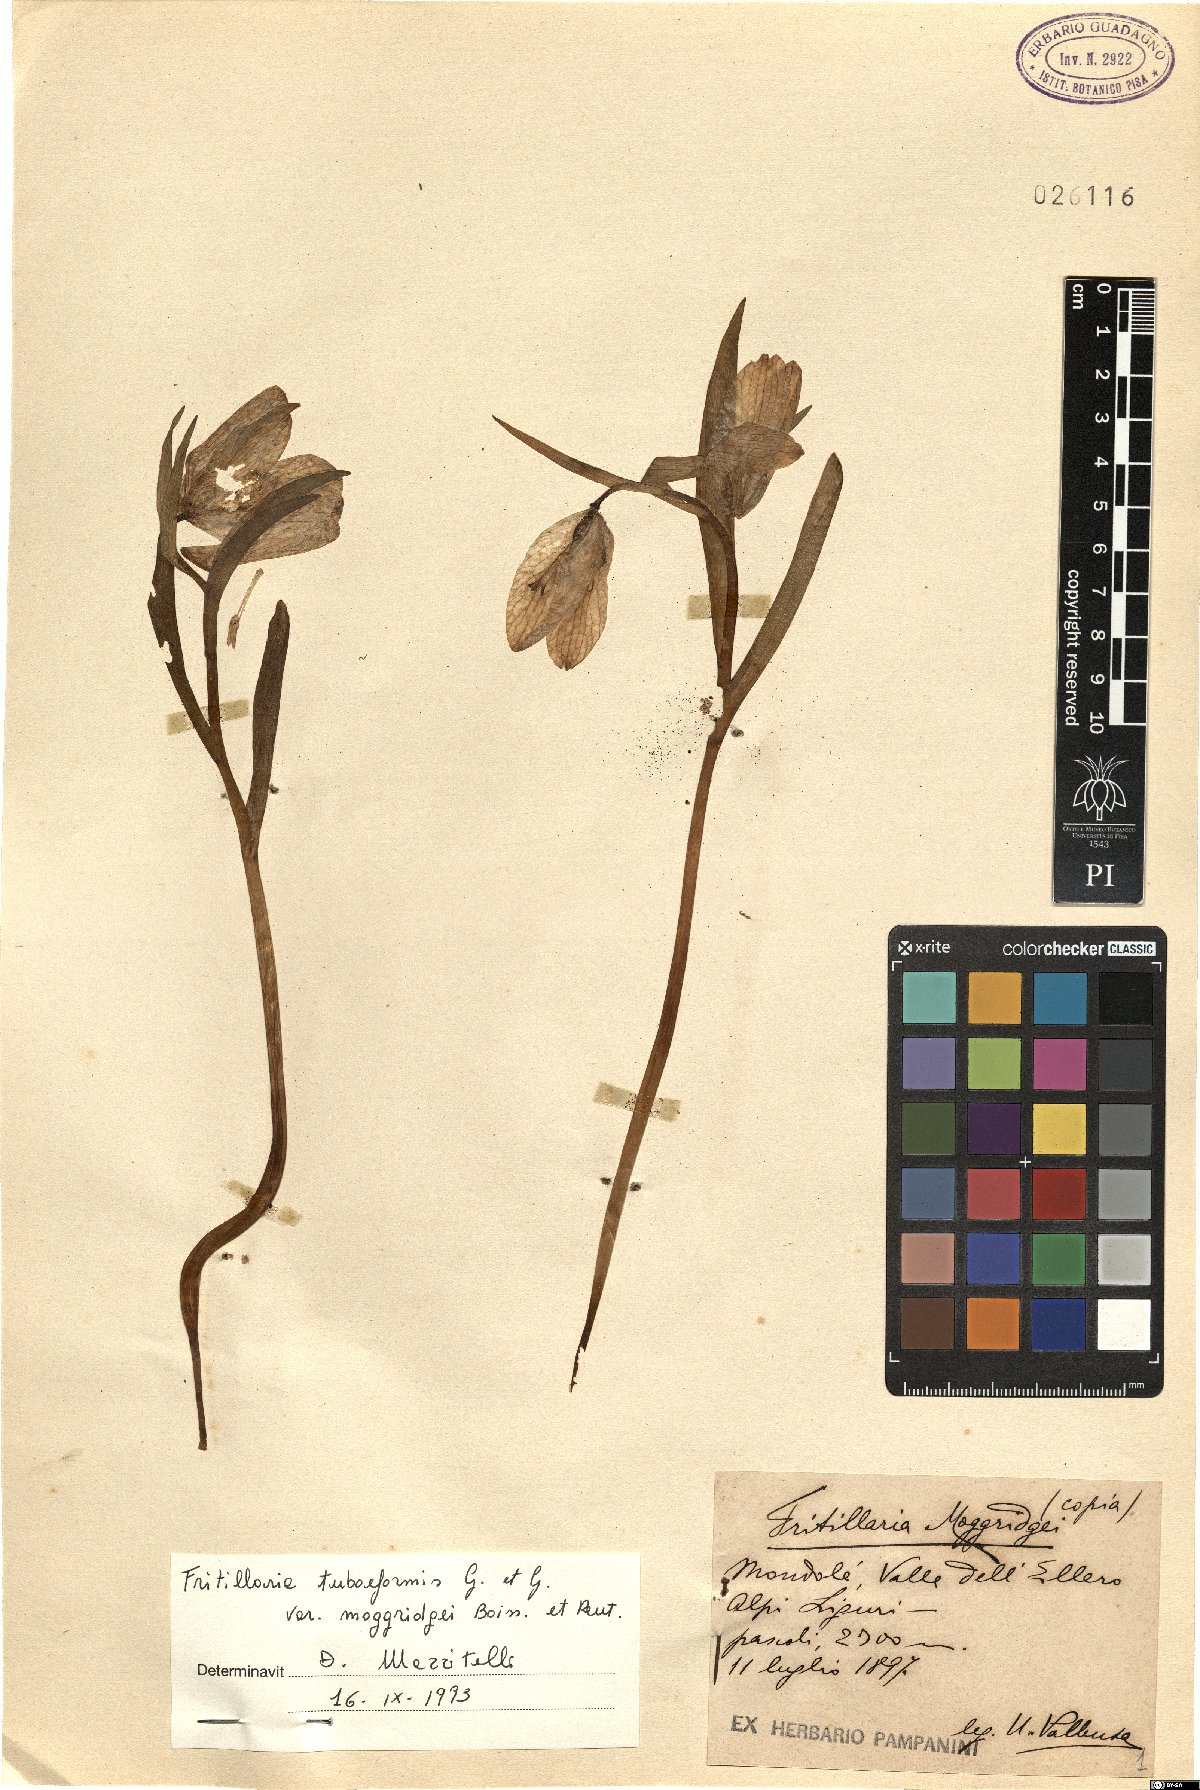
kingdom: Plantae
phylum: Tracheophyta
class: Liliopsida
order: Liliales
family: Liliaceae
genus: Fritillaria
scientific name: Fritillaria tubaeformis
